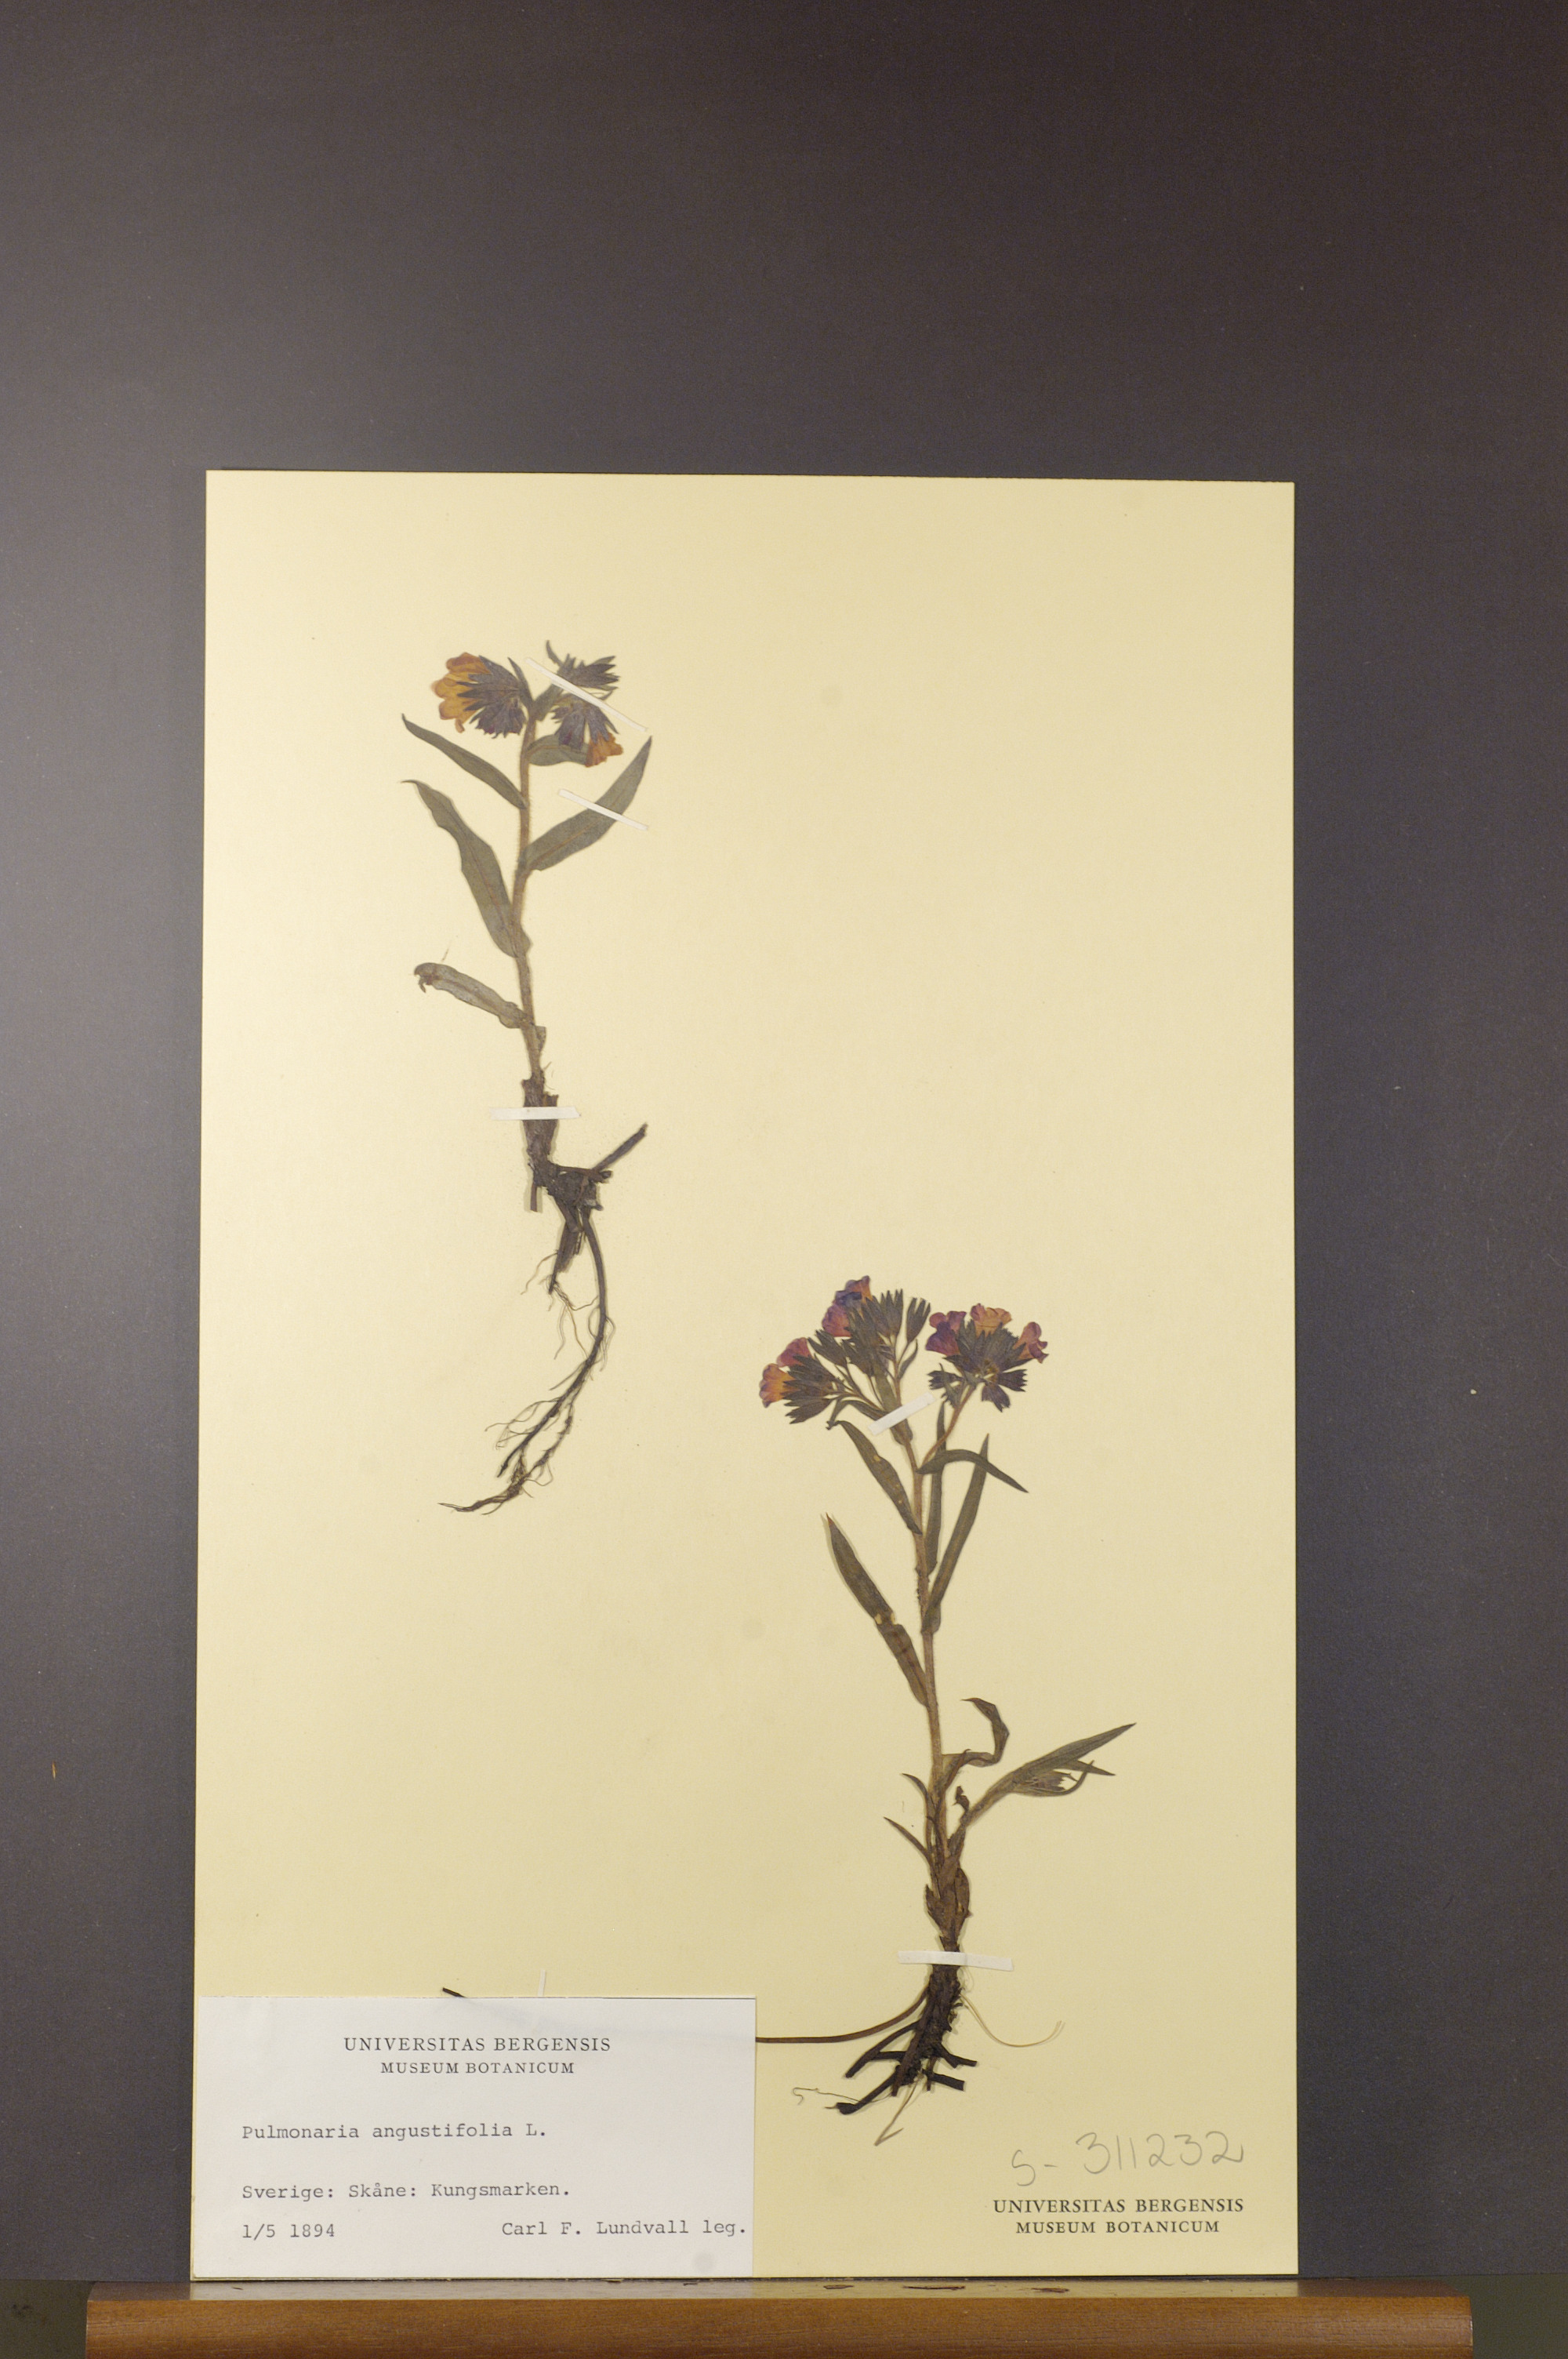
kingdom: Plantae
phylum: Tracheophyta
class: Magnoliopsida
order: Boraginales
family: Boraginaceae
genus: Pulmonaria
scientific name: Pulmonaria angustifolia
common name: Blue cowslip
